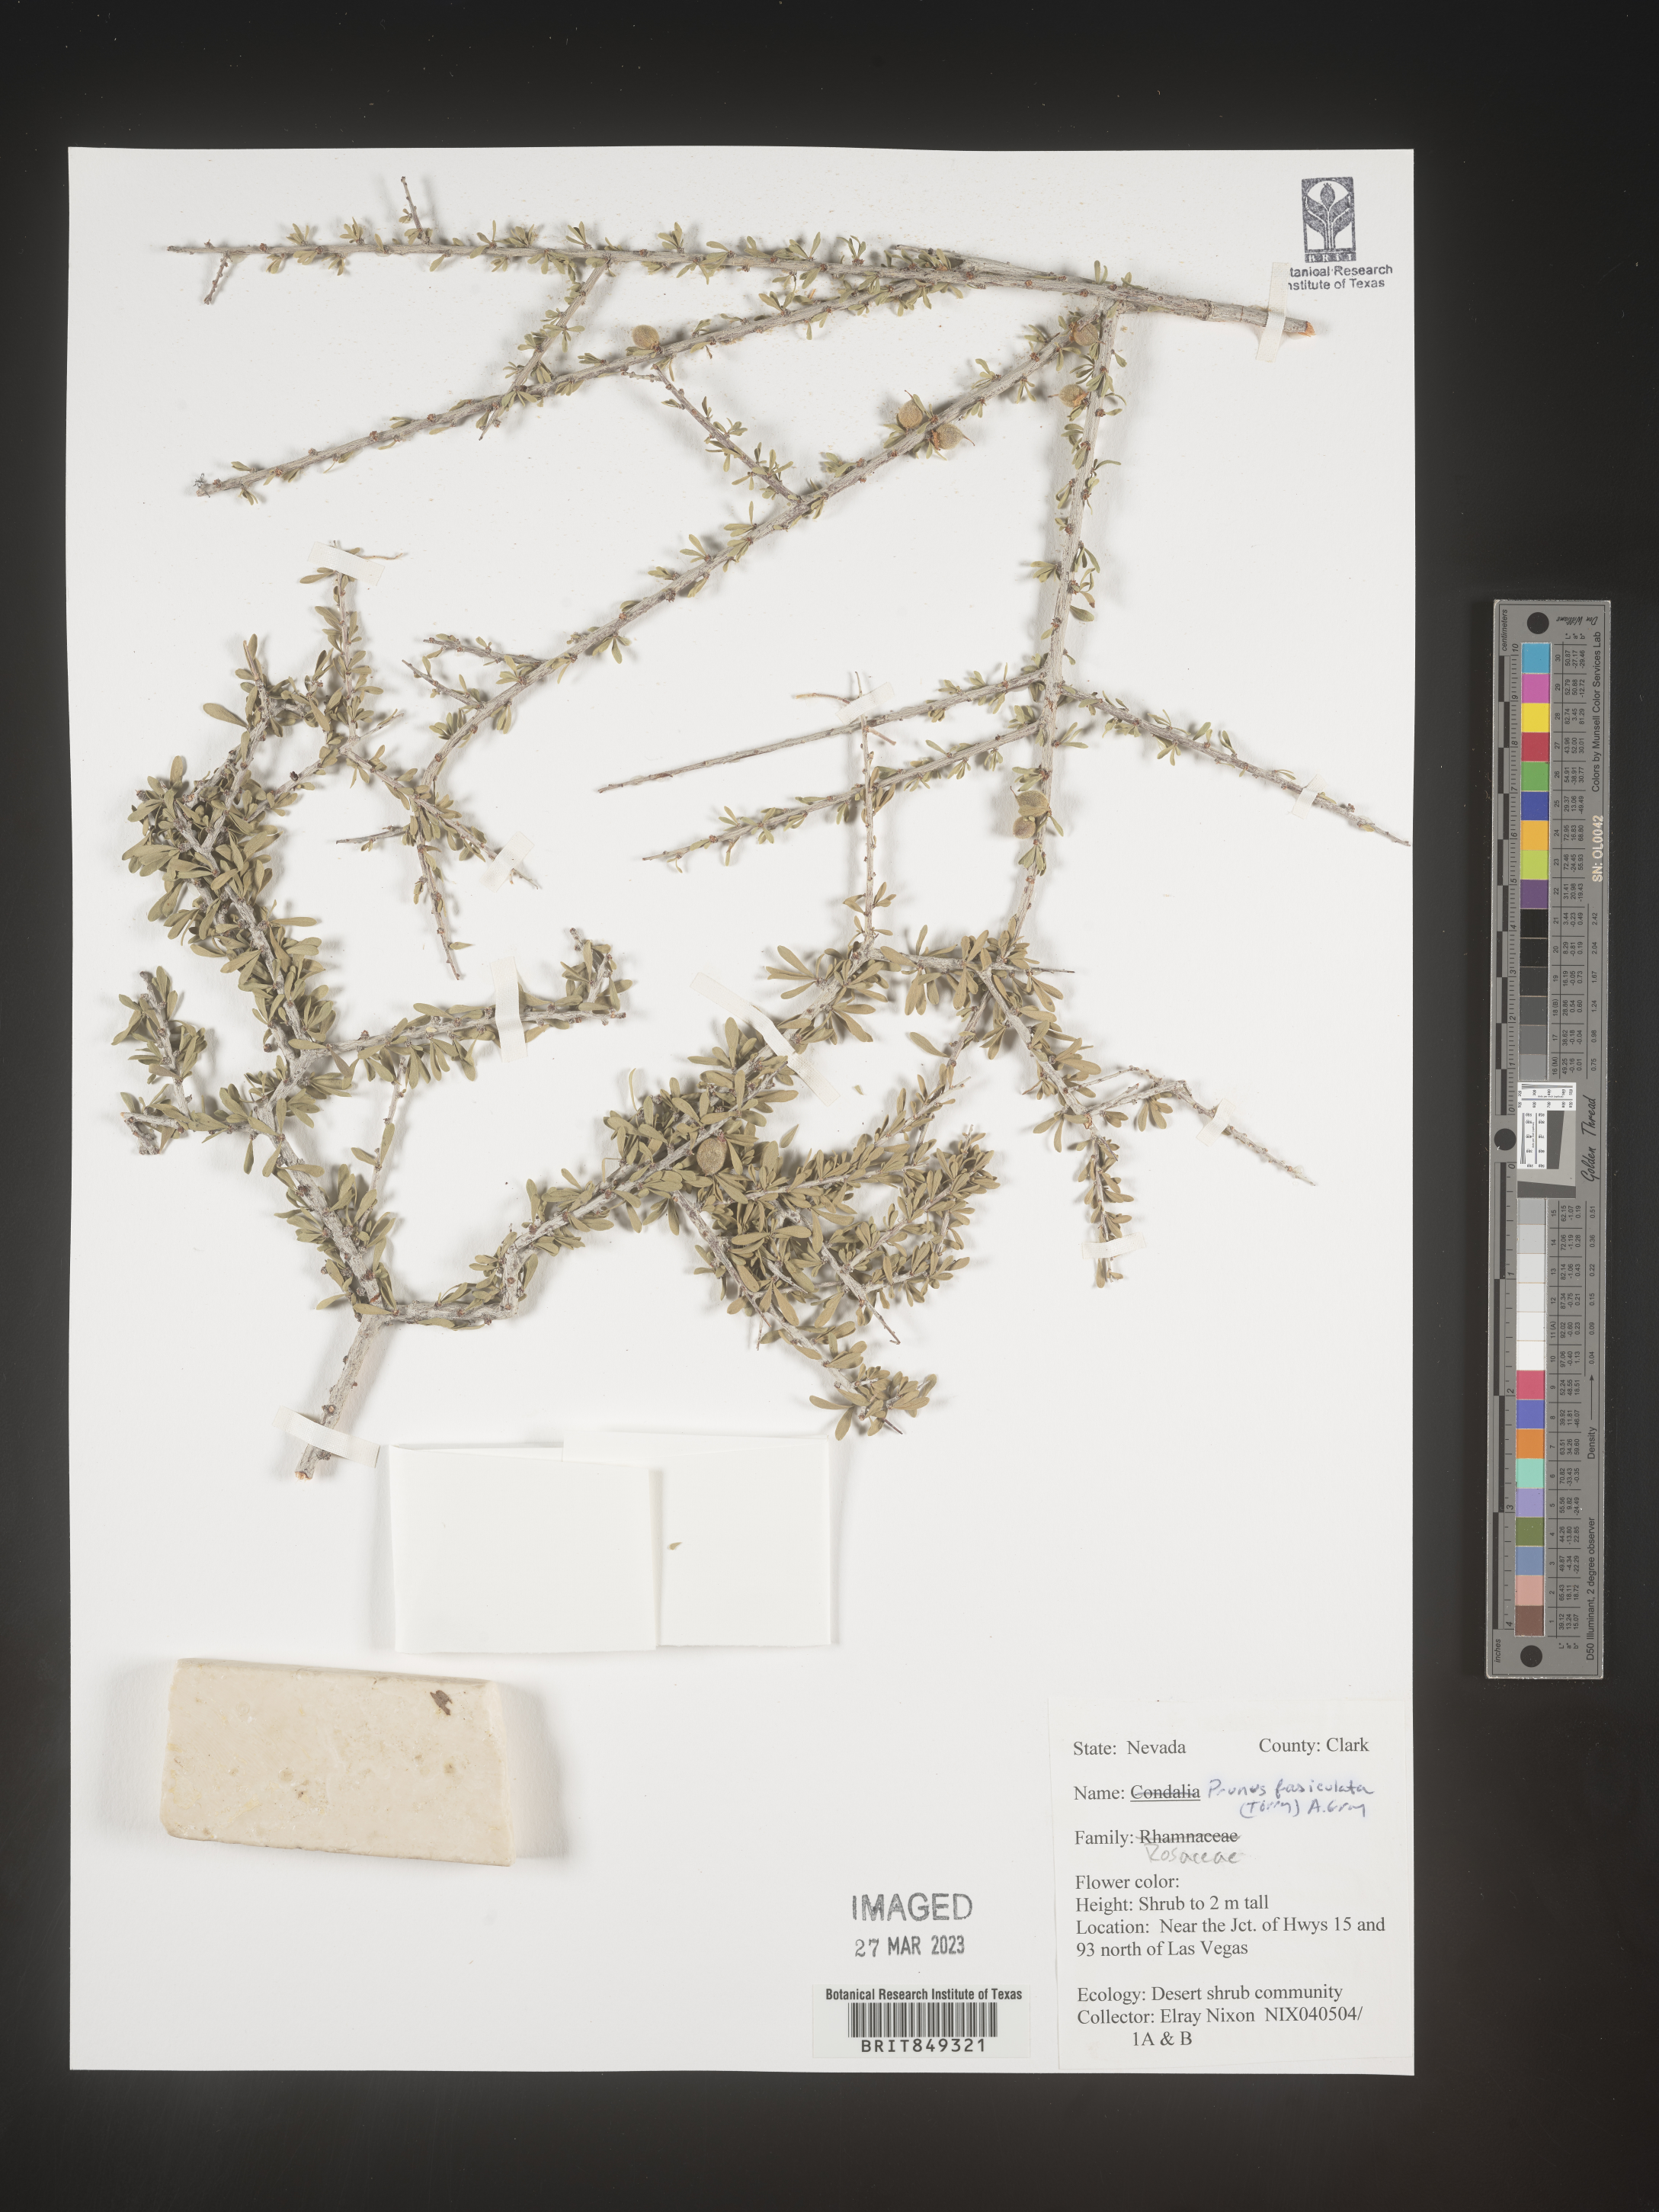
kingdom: Plantae
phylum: Tracheophyta
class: Magnoliopsida
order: Rosales
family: Rosaceae
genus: Prunus
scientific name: Prunus
